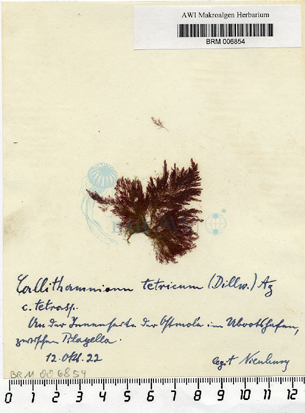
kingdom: Plantae
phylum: Rhodophyta
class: Florideophyceae
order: Ceramiales
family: Callithamniaceae
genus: Callithamnion
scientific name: Callithamnion tetricum
